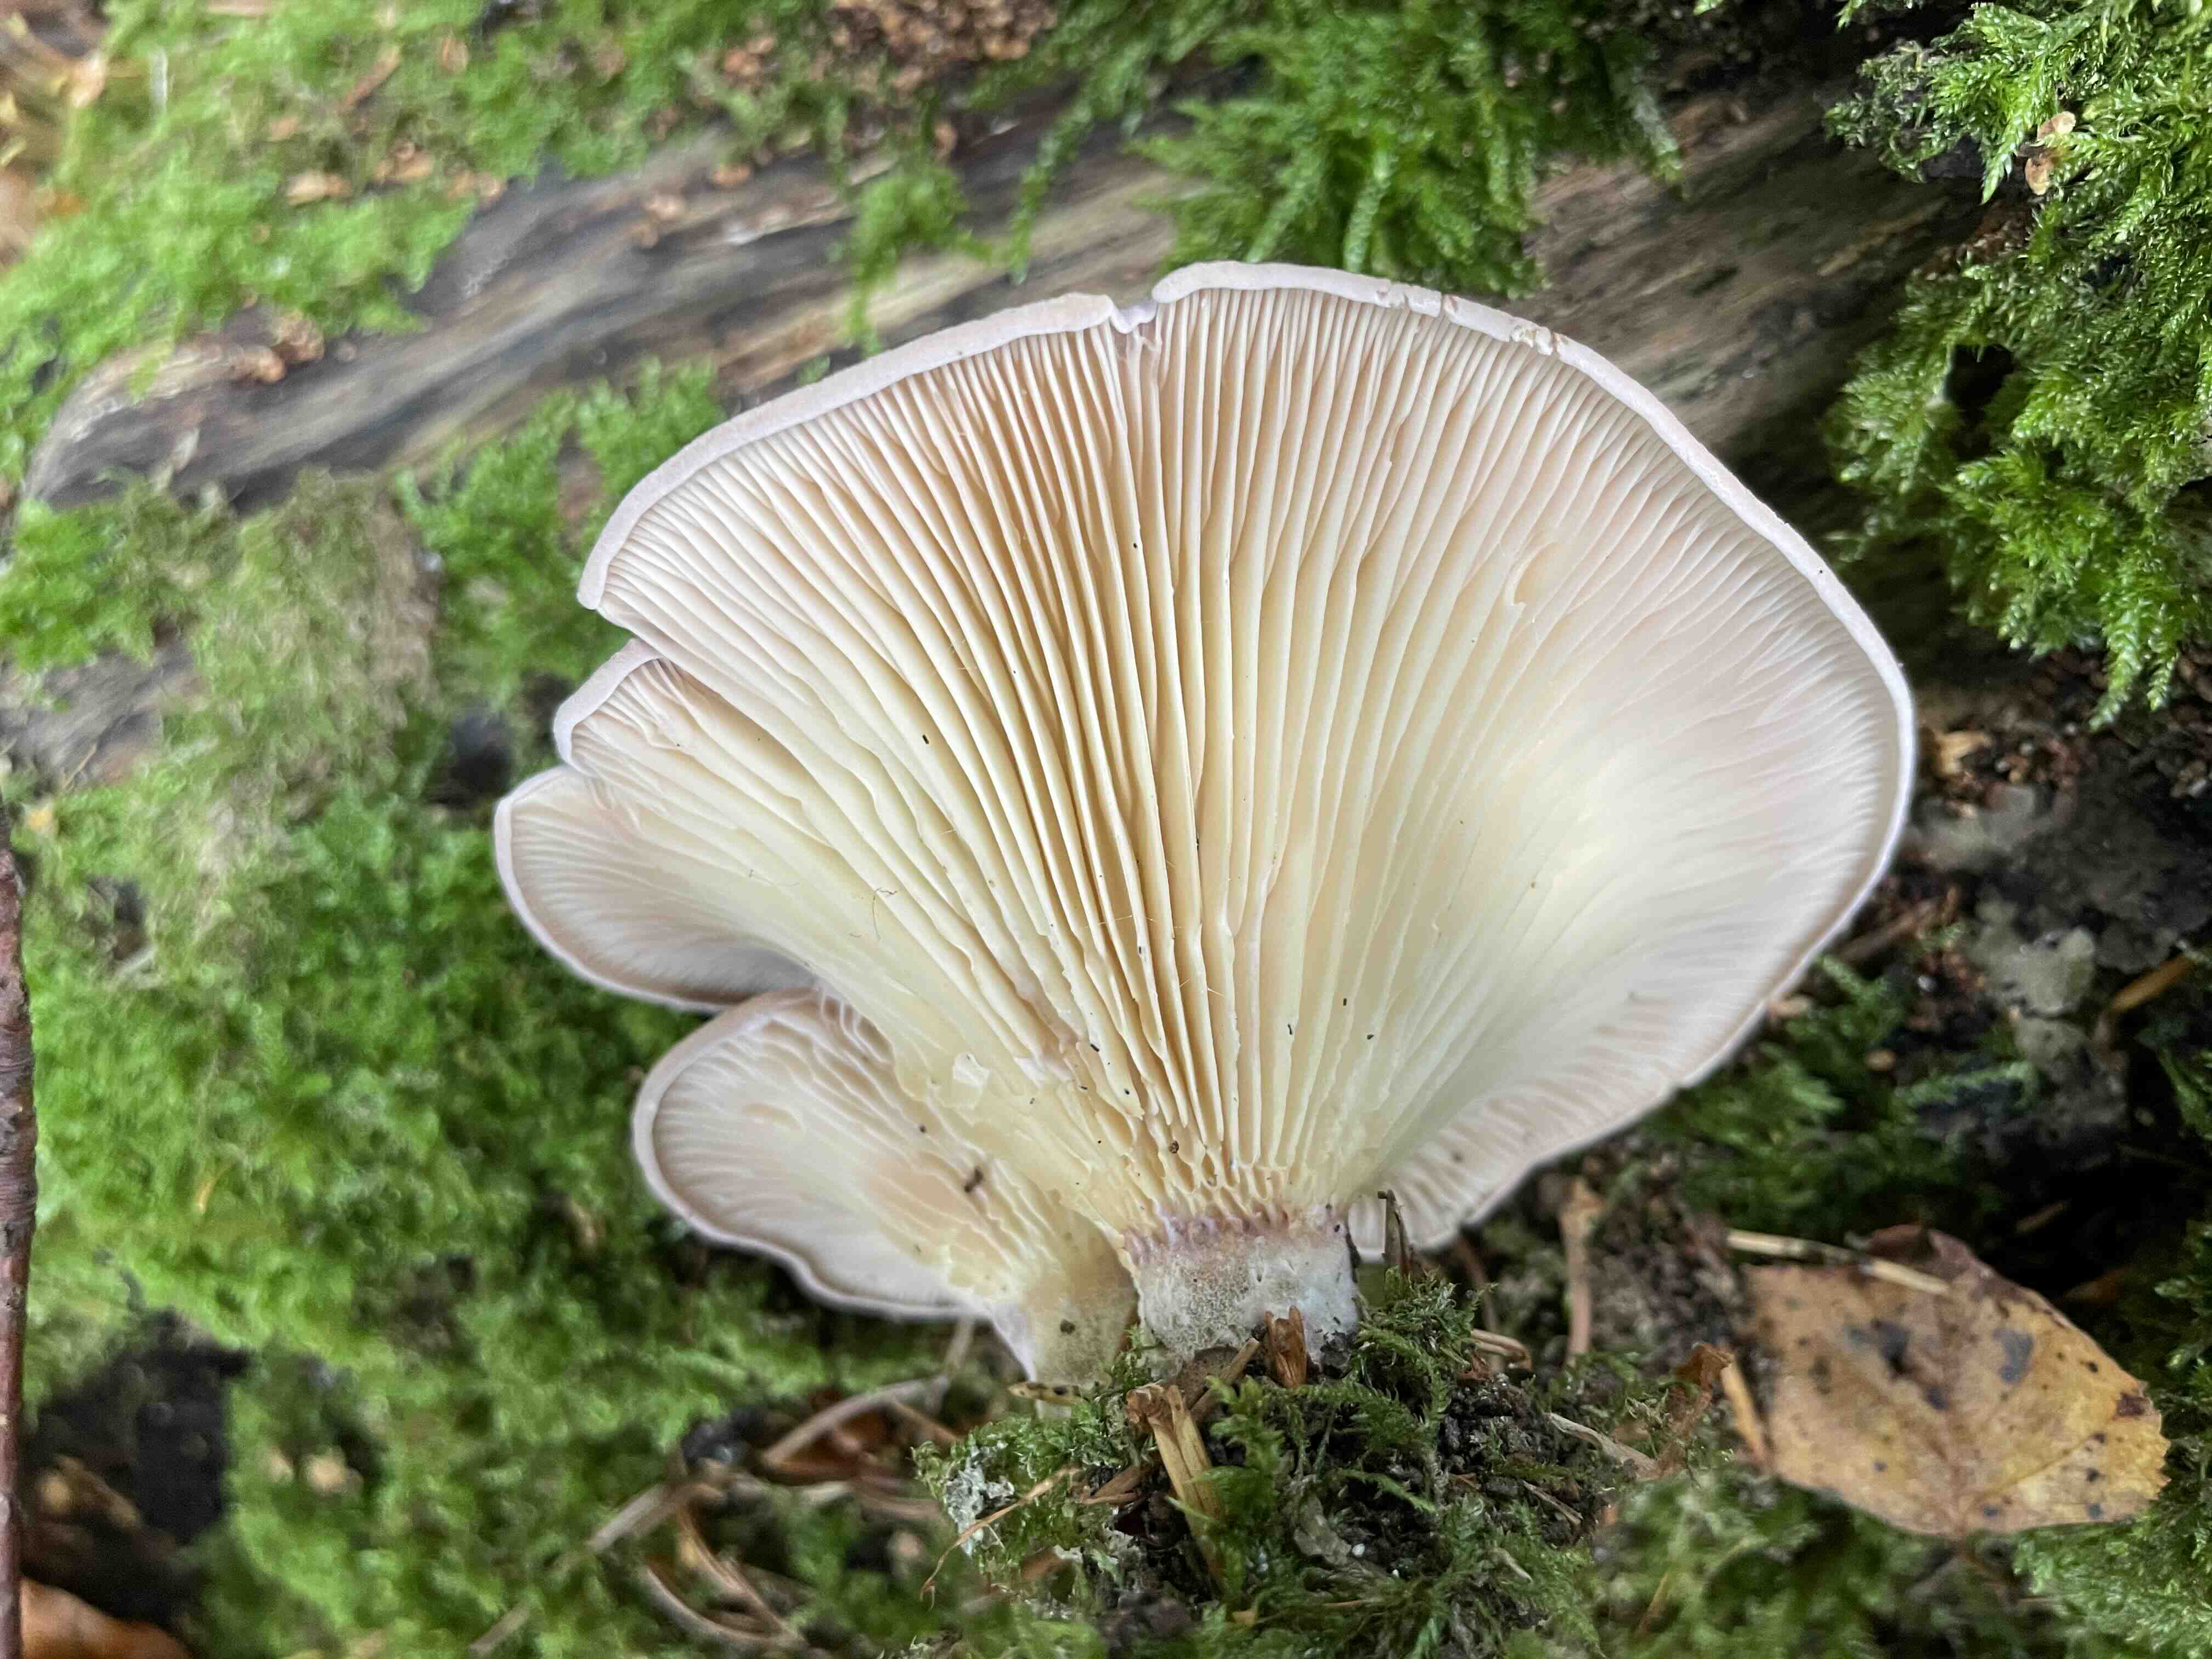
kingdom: Fungi
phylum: Basidiomycota
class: Agaricomycetes
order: Polyporales
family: Panaceae
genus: Panus
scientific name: Panus conchatus
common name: filtstokket læderhat
